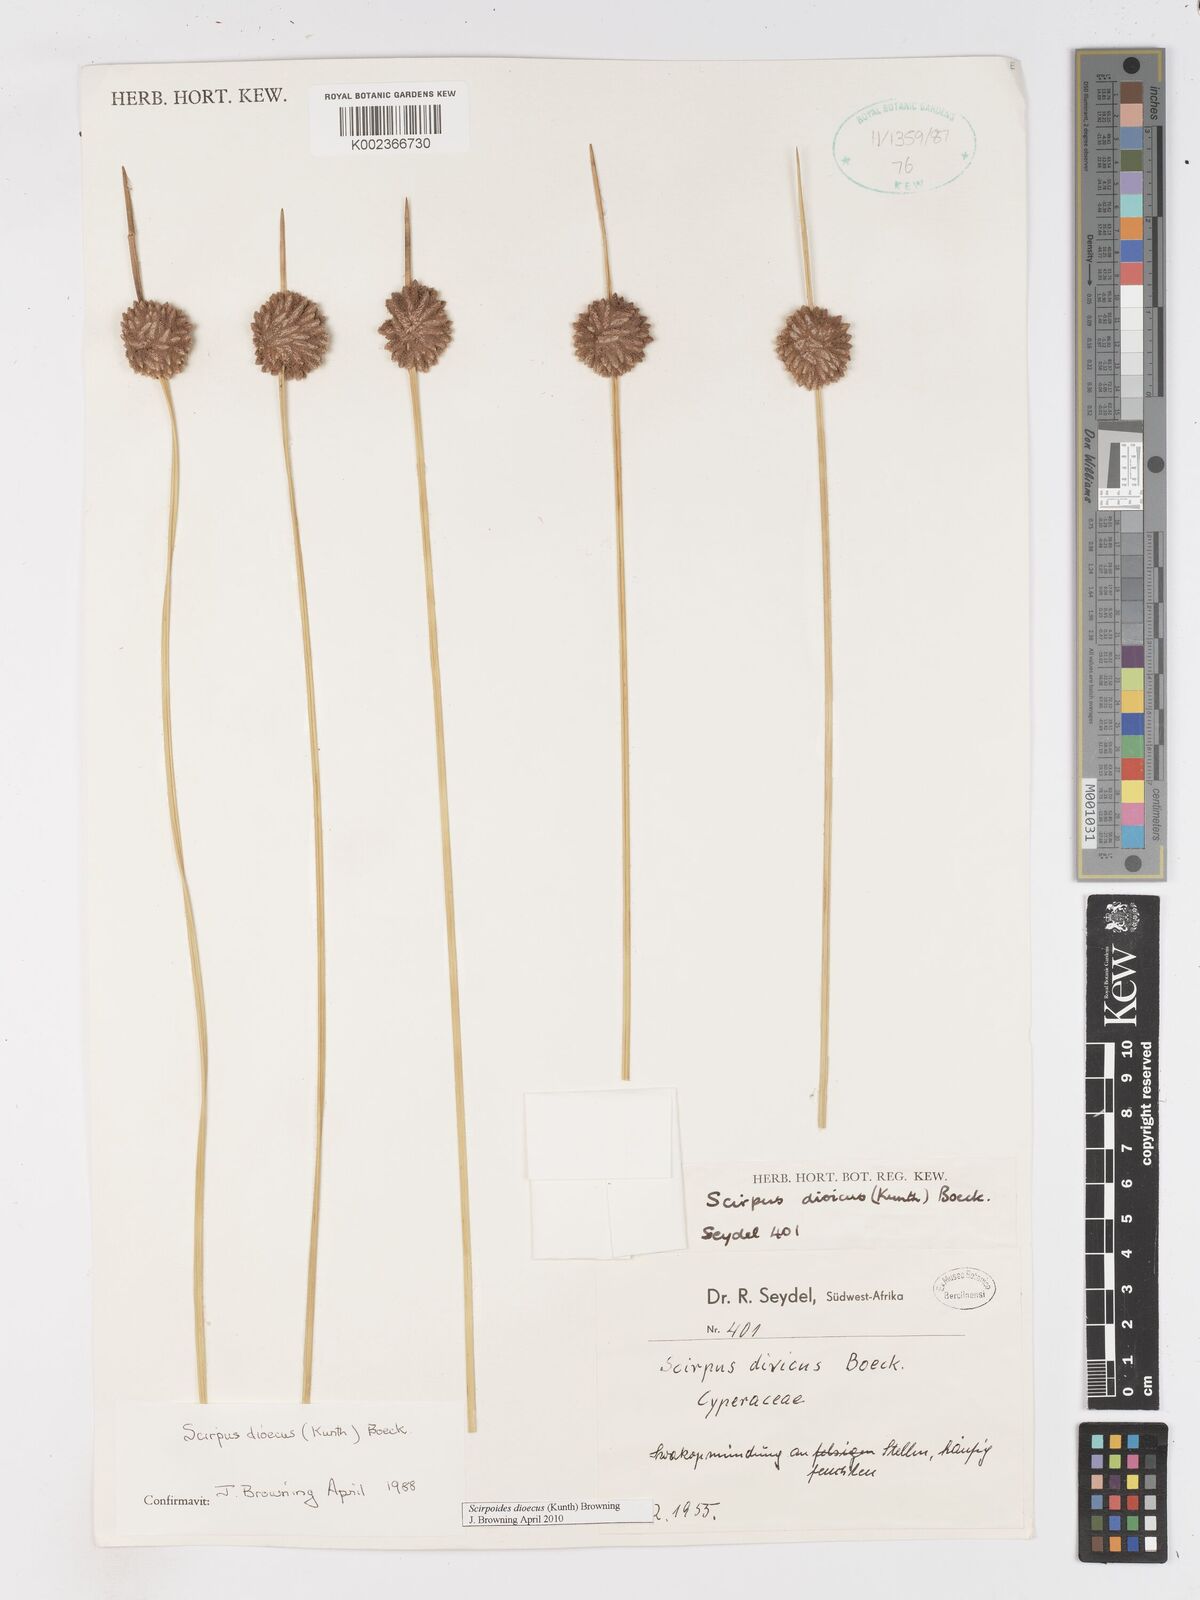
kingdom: Plantae
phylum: Tracheophyta
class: Liliopsida
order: Poales
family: Cyperaceae
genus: Scirpoides
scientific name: Scirpoides
